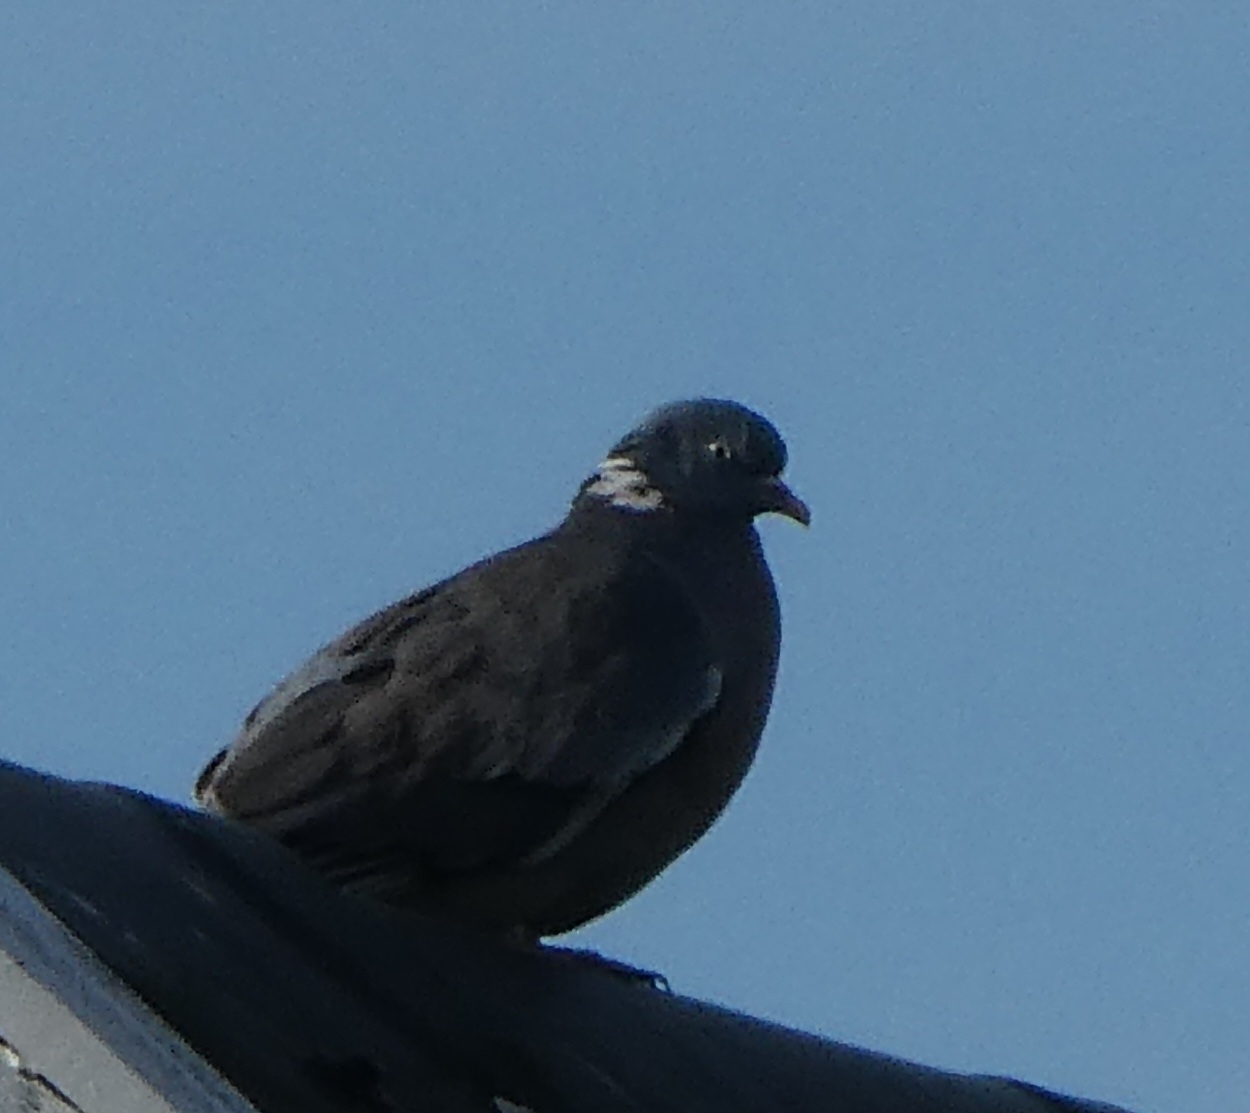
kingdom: Animalia
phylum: Chordata
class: Aves
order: Columbiformes
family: Columbidae
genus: Columba
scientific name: Columba palumbus
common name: Ringdue
